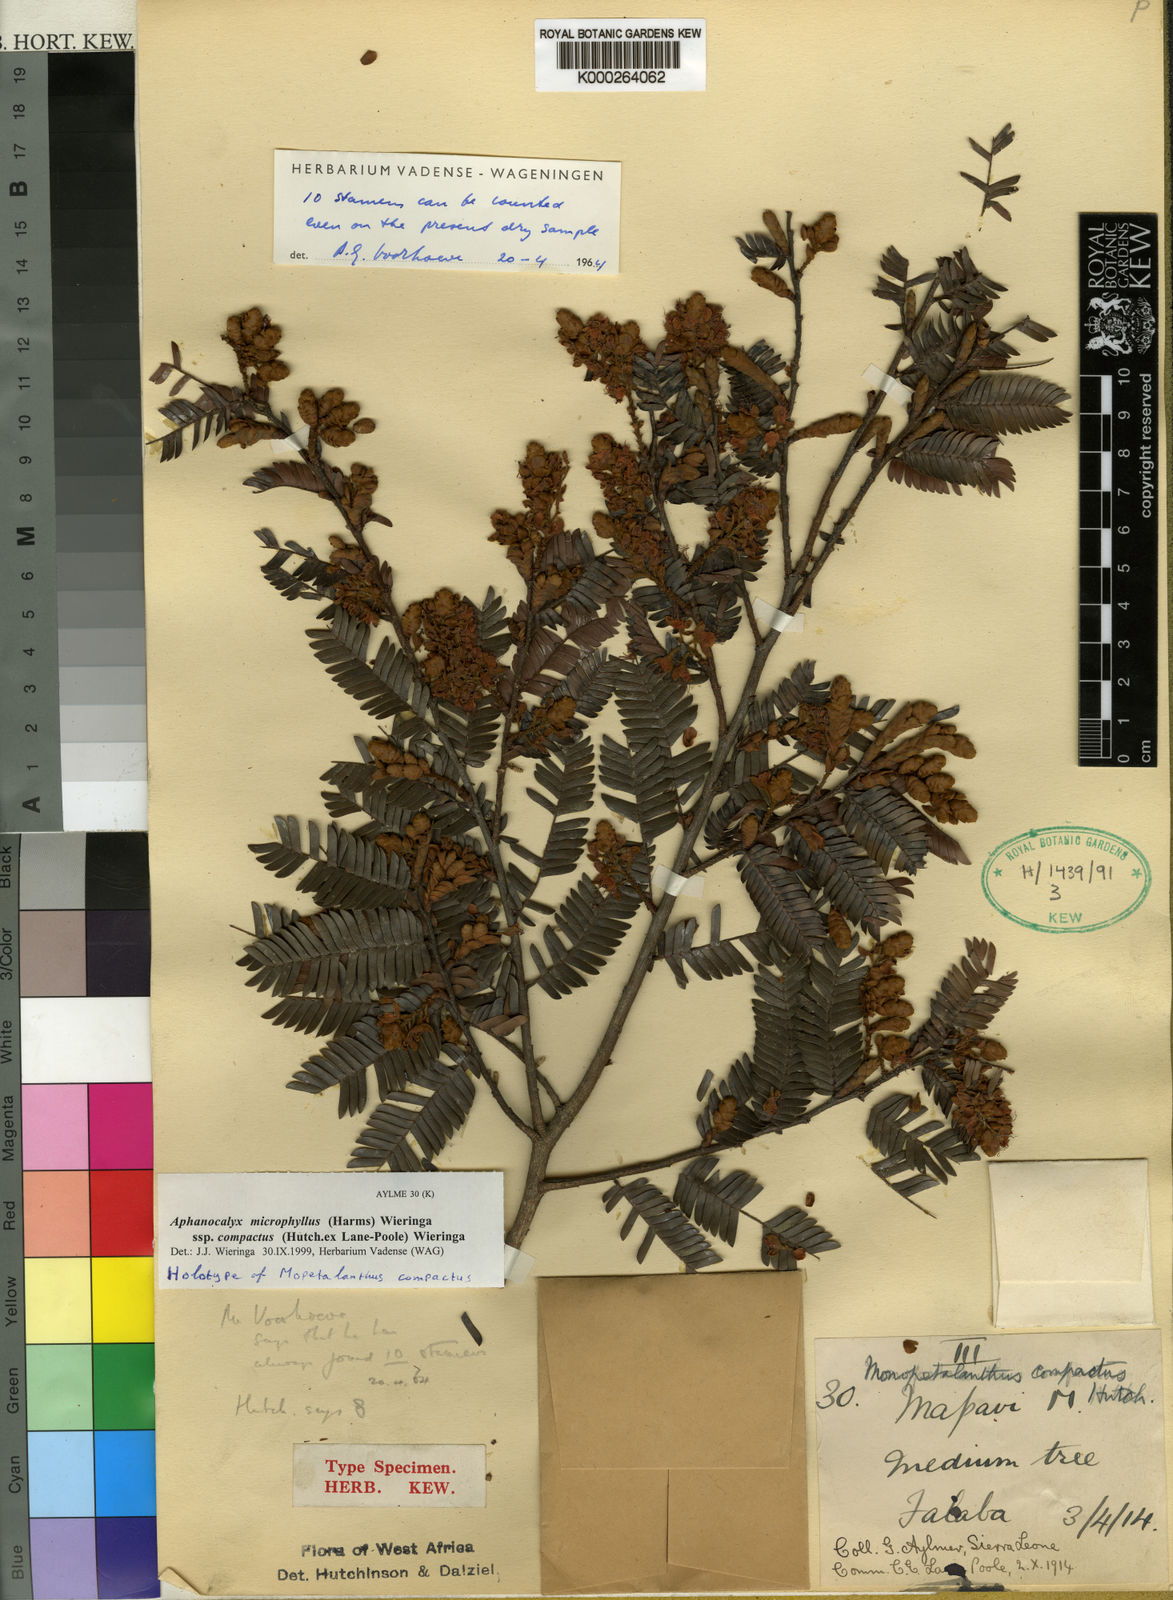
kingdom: Plantae
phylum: Tracheophyta
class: Magnoliopsida
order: Fabales
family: Fabaceae
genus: Aphanocalyx
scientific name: Aphanocalyx microphyllus
